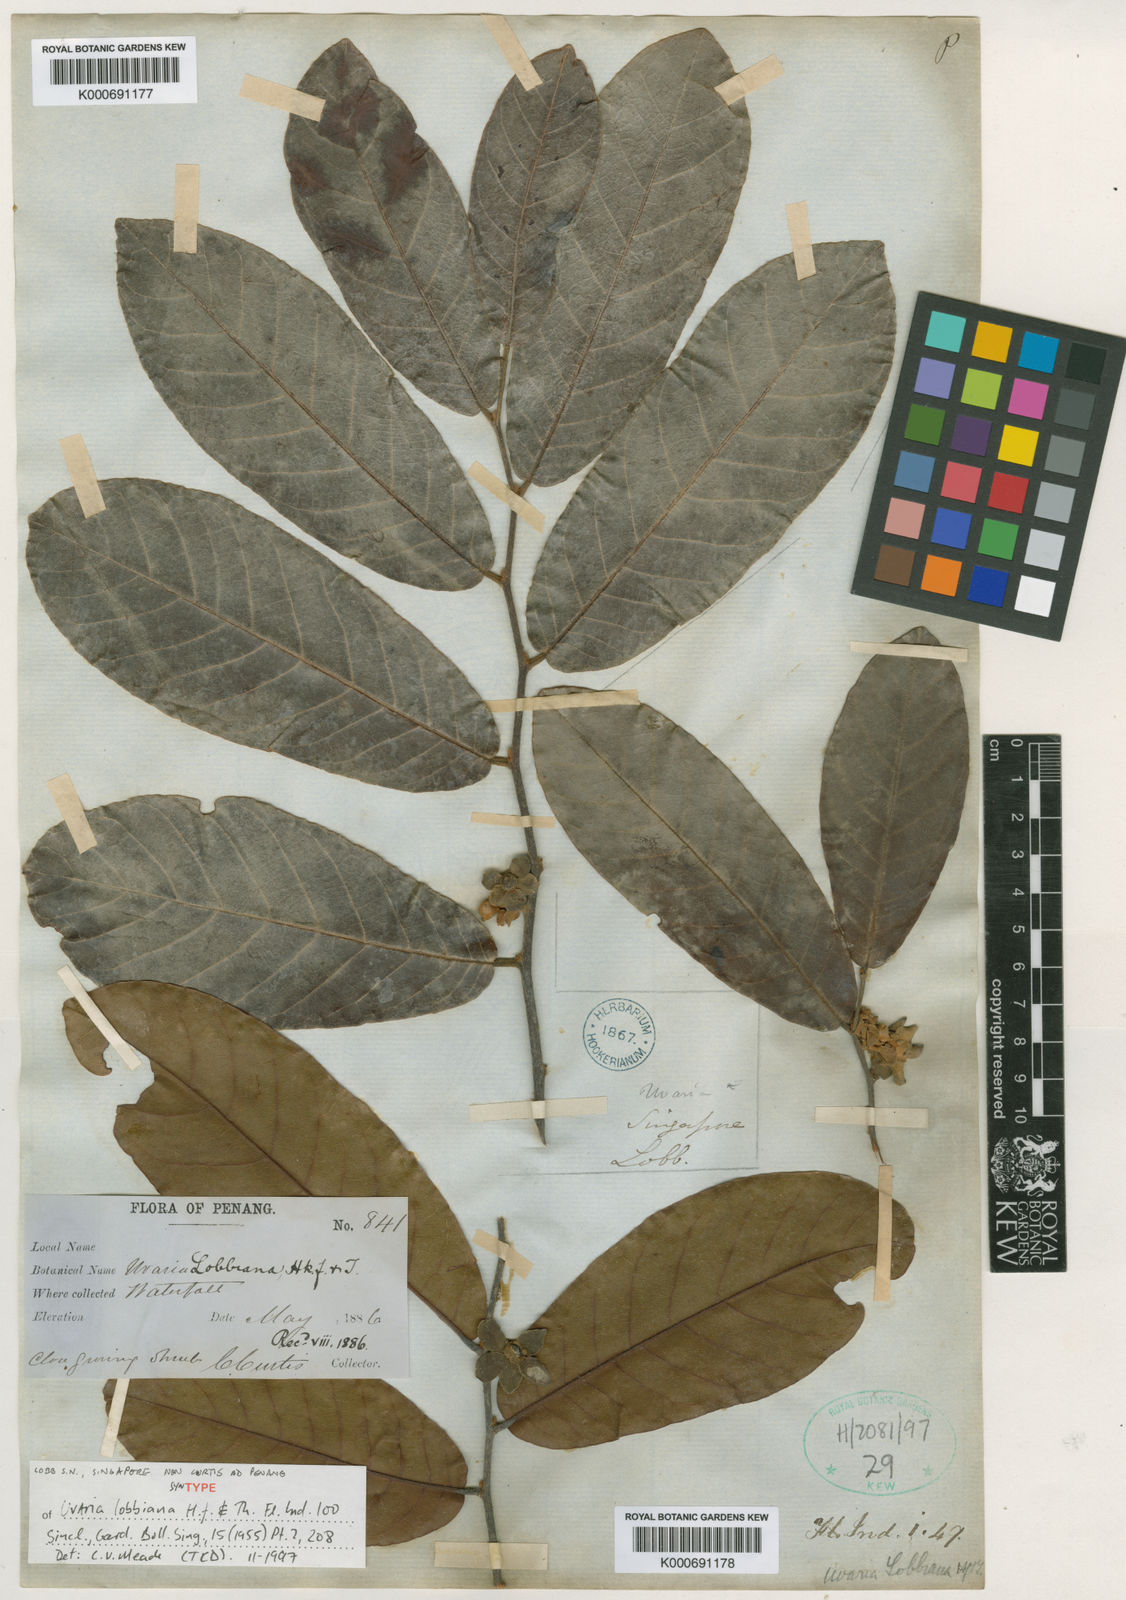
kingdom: Plantae
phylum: Tracheophyta
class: Magnoliopsida
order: Magnoliales
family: Annonaceae
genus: Uvaria
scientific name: Uvaria lobbiana
